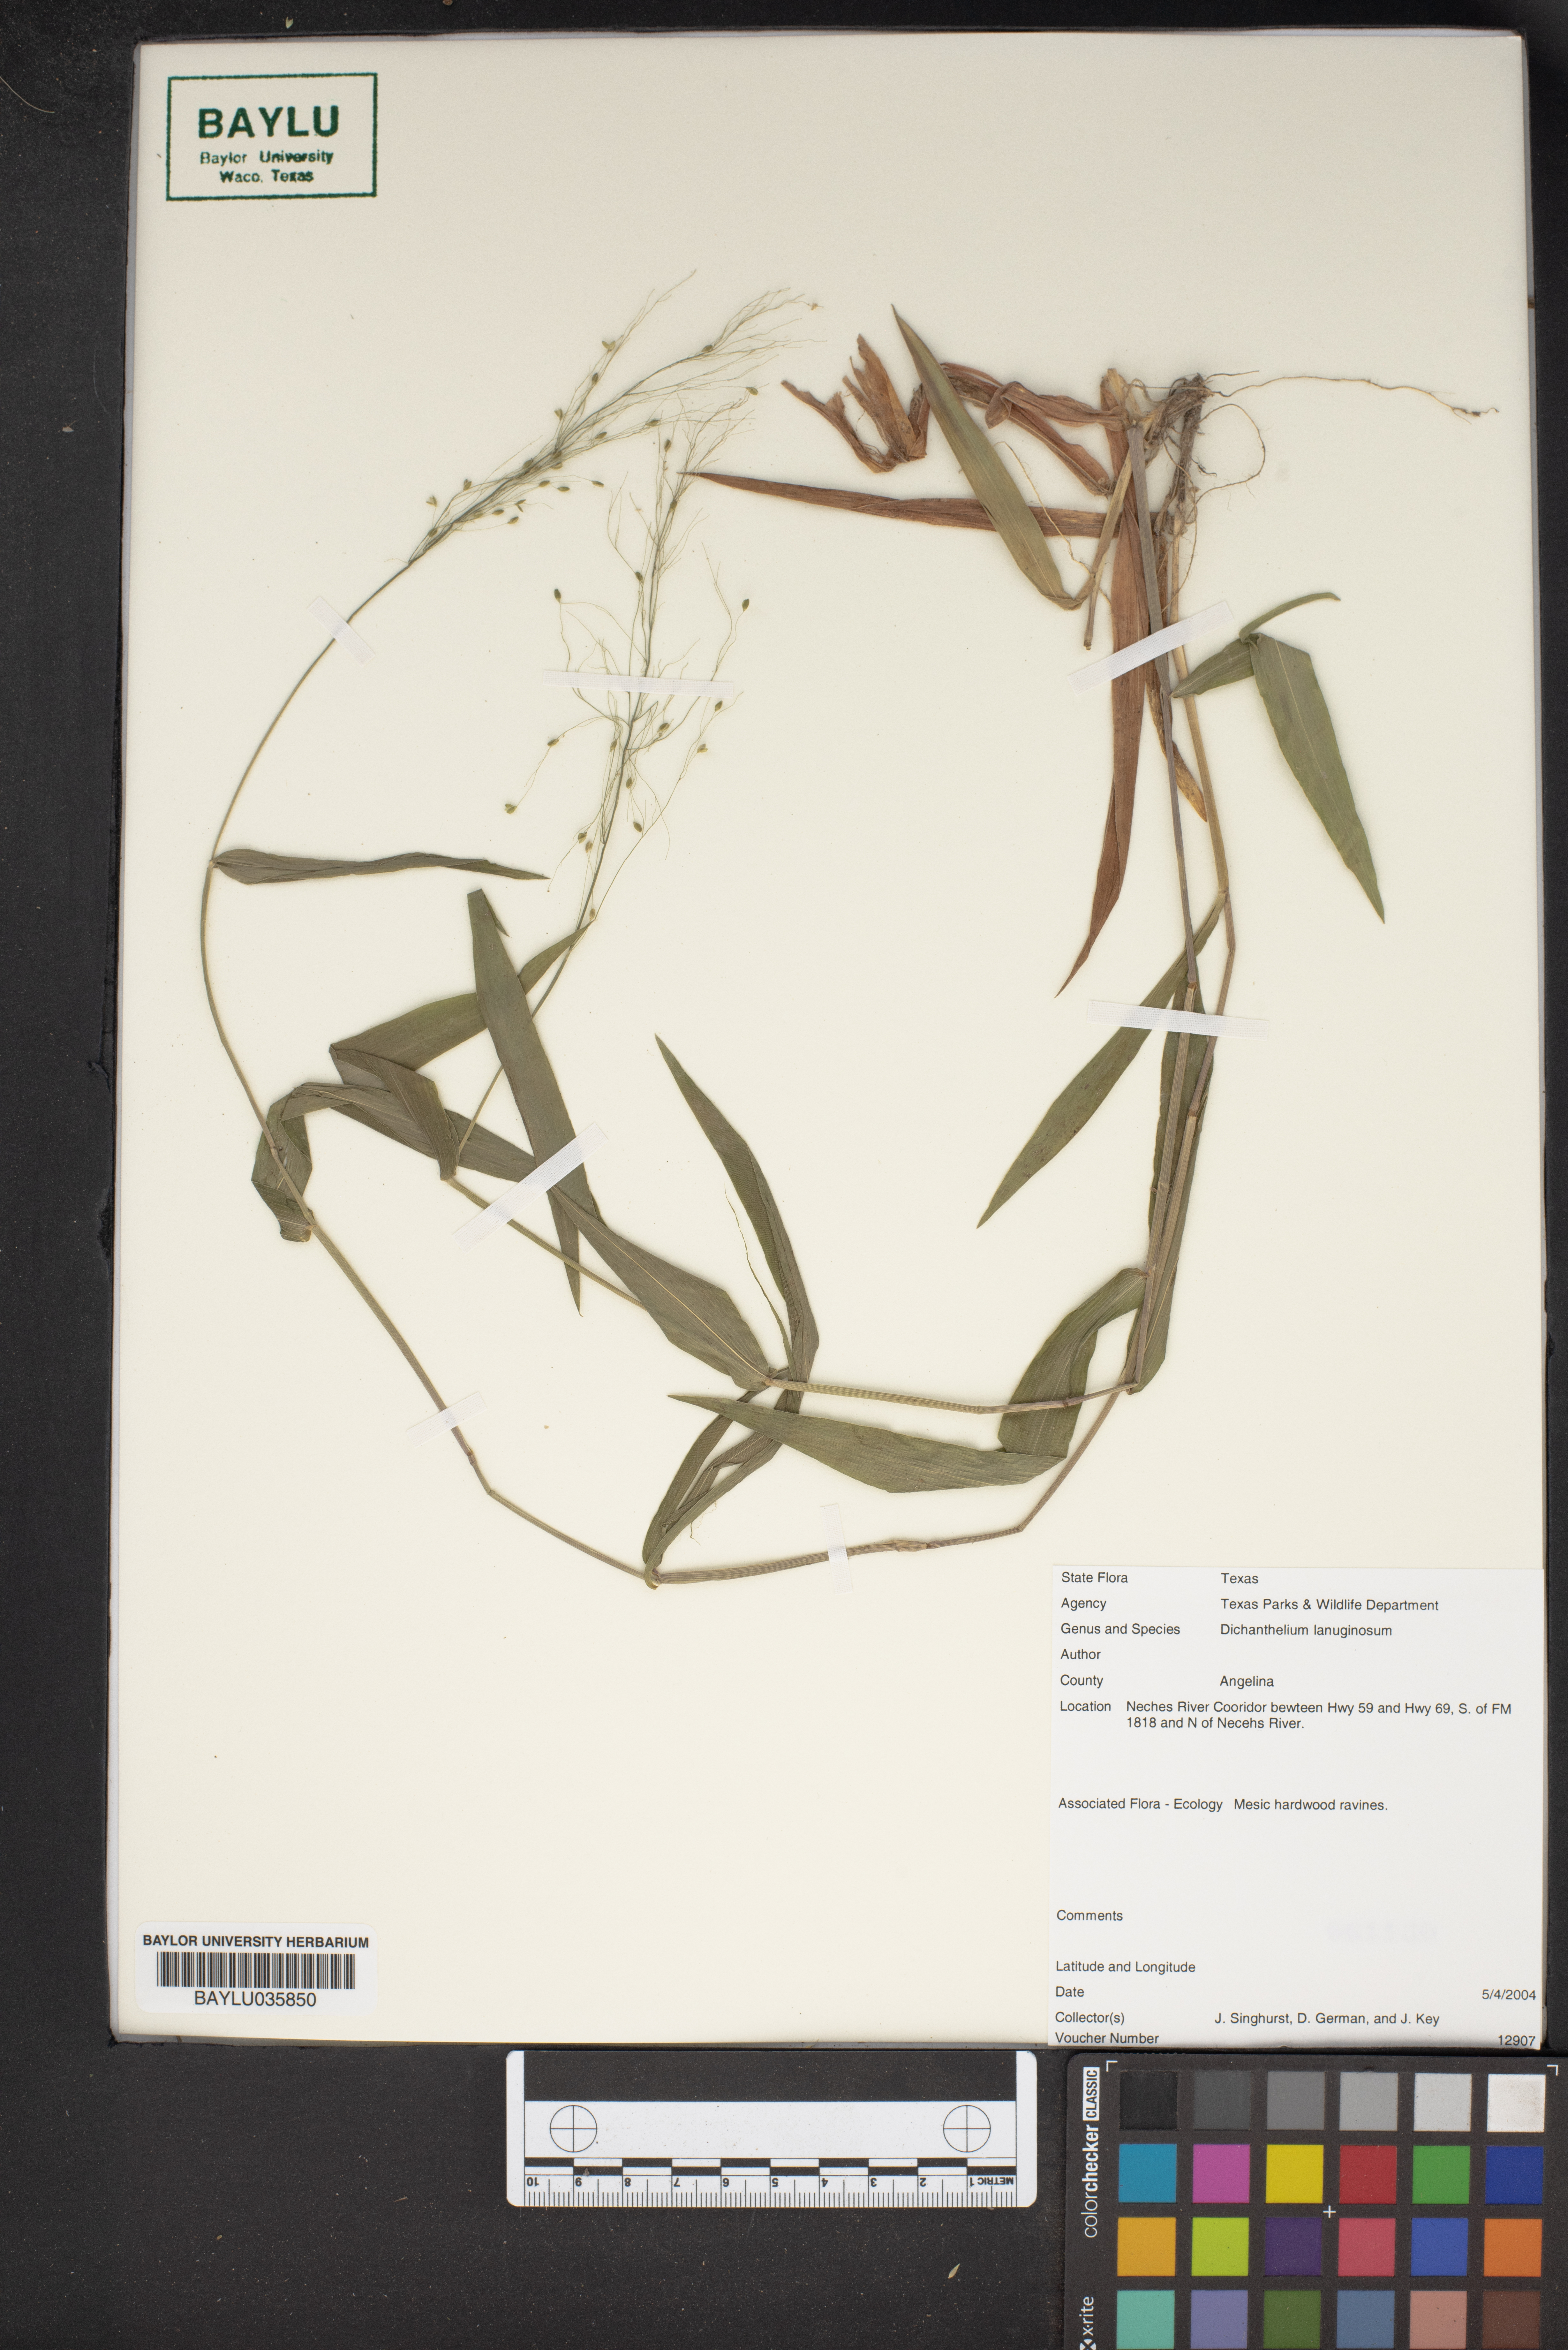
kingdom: Plantae
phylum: Tracheophyta
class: Liliopsida
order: Poales
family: Poaceae
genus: Dichanthelium
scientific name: Dichanthelium lanuginosum
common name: Woolly panicgrass
